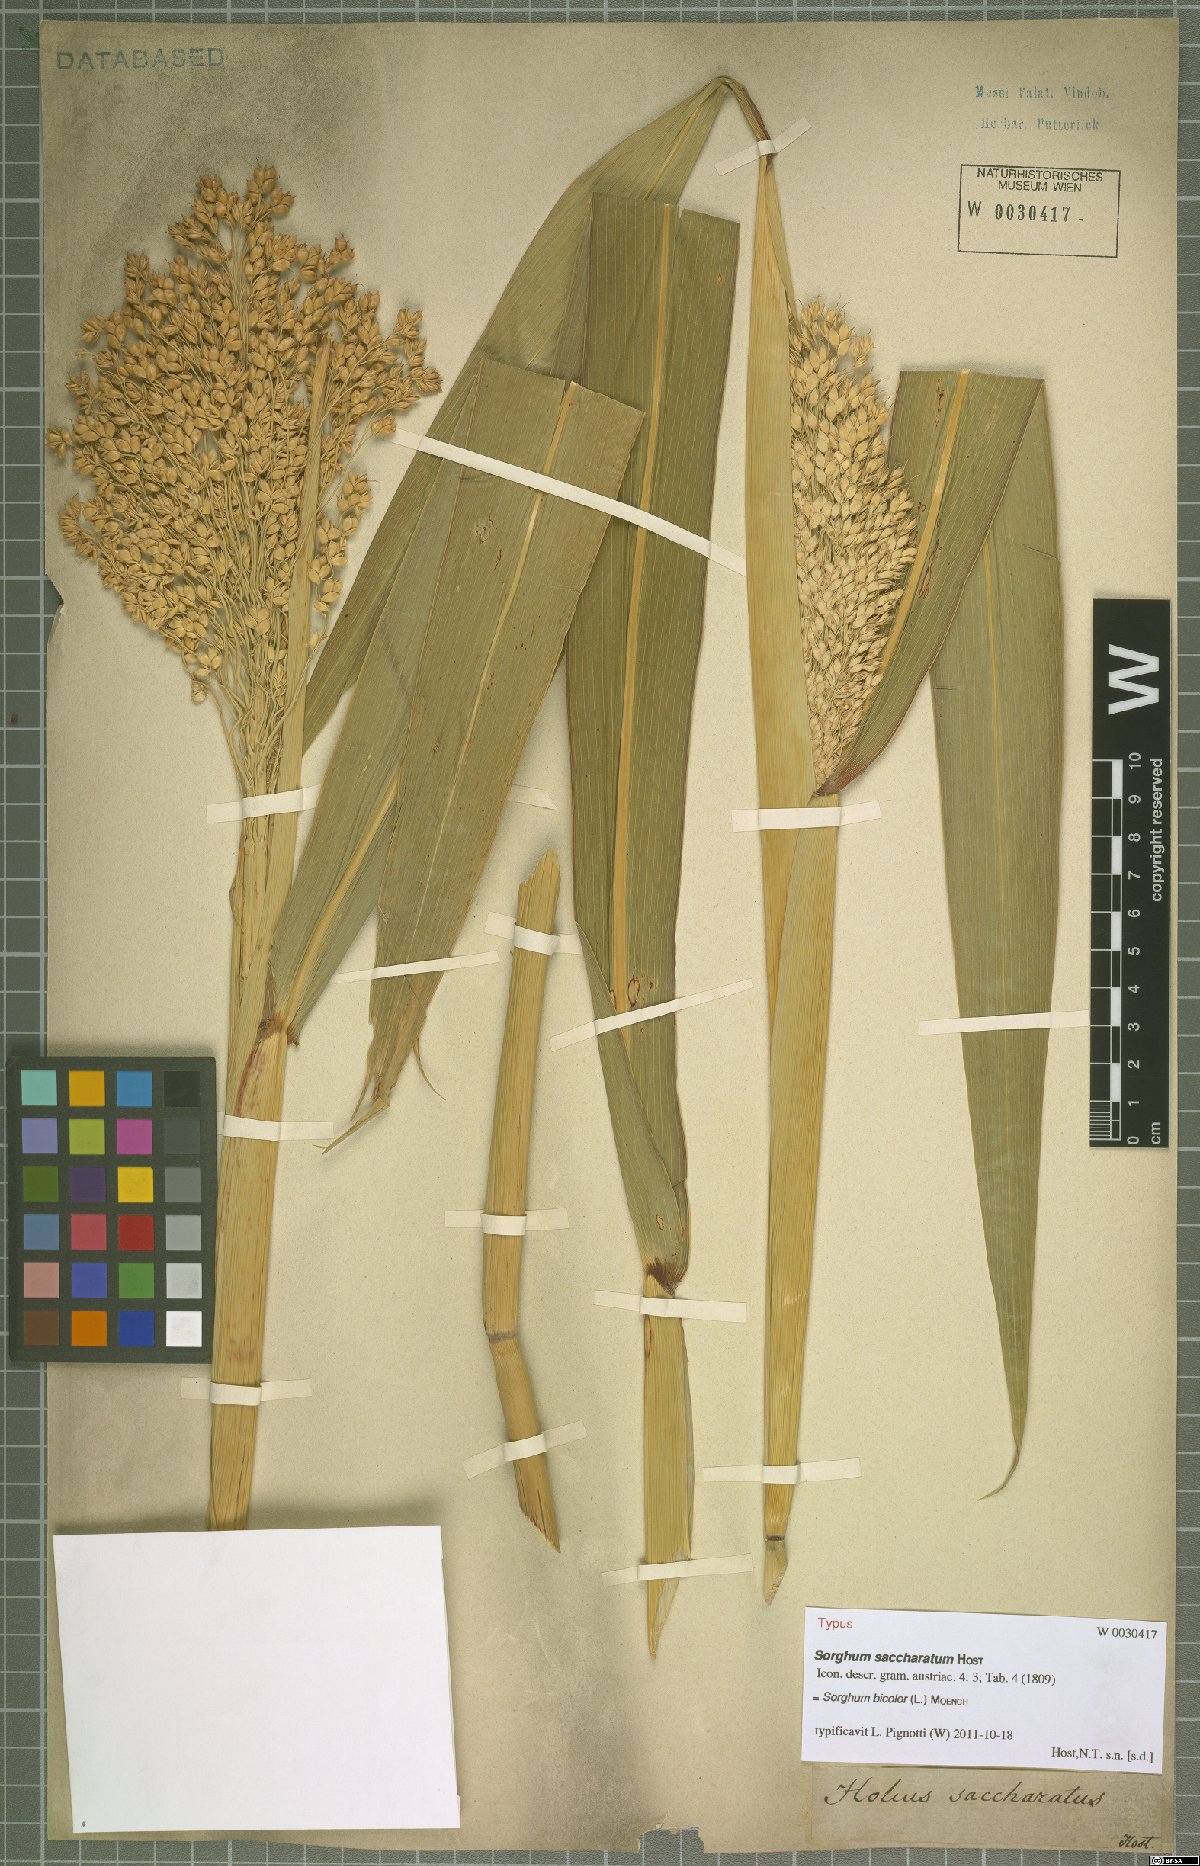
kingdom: Plantae
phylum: Tracheophyta
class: Liliopsida
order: Poales
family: Poaceae
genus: Sorghum
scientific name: Sorghum bicolor
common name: Sorghum
